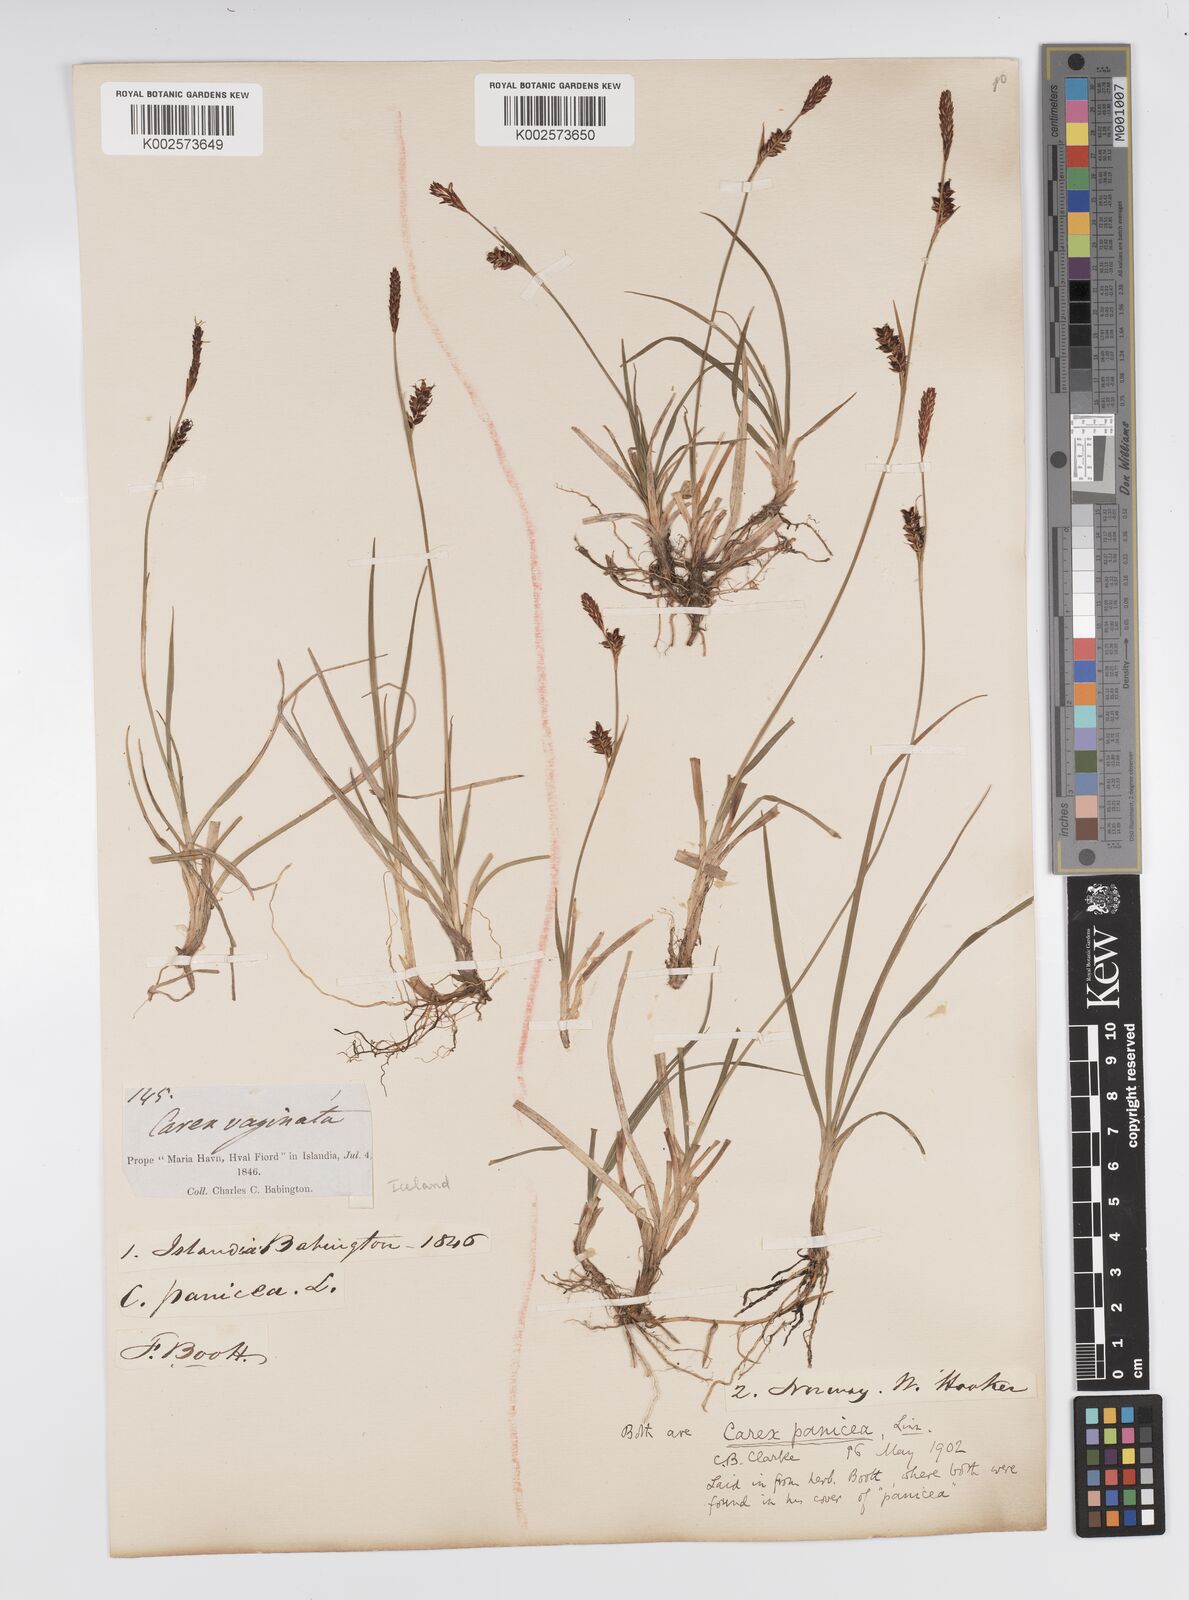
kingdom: Plantae
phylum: Tracheophyta
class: Liliopsida
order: Poales
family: Cyperaceae
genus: Carex
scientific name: Carex panicea
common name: Carnation sedge
